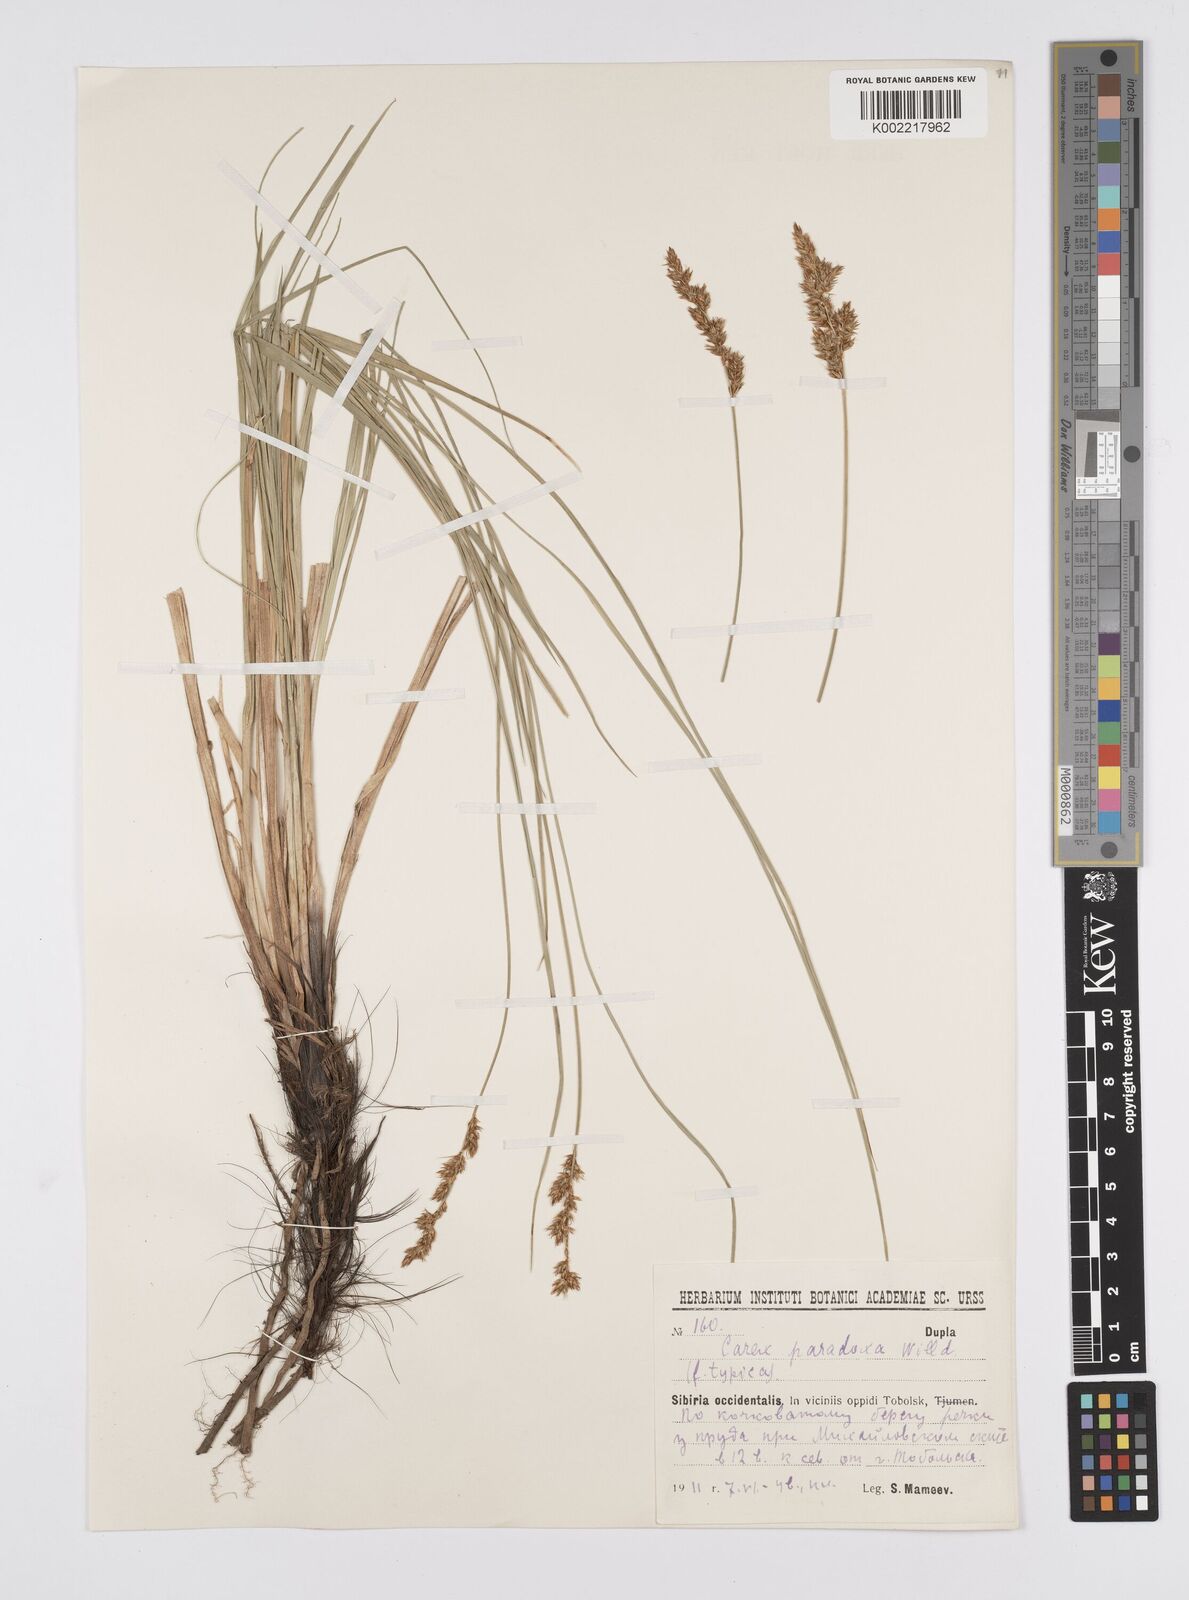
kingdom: Plantae
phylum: Tracheophyta
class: Liliopsida
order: Poales
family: Cyperaceae
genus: Carex
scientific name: Carex appropinquata
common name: Fibrous tussock-sedge
